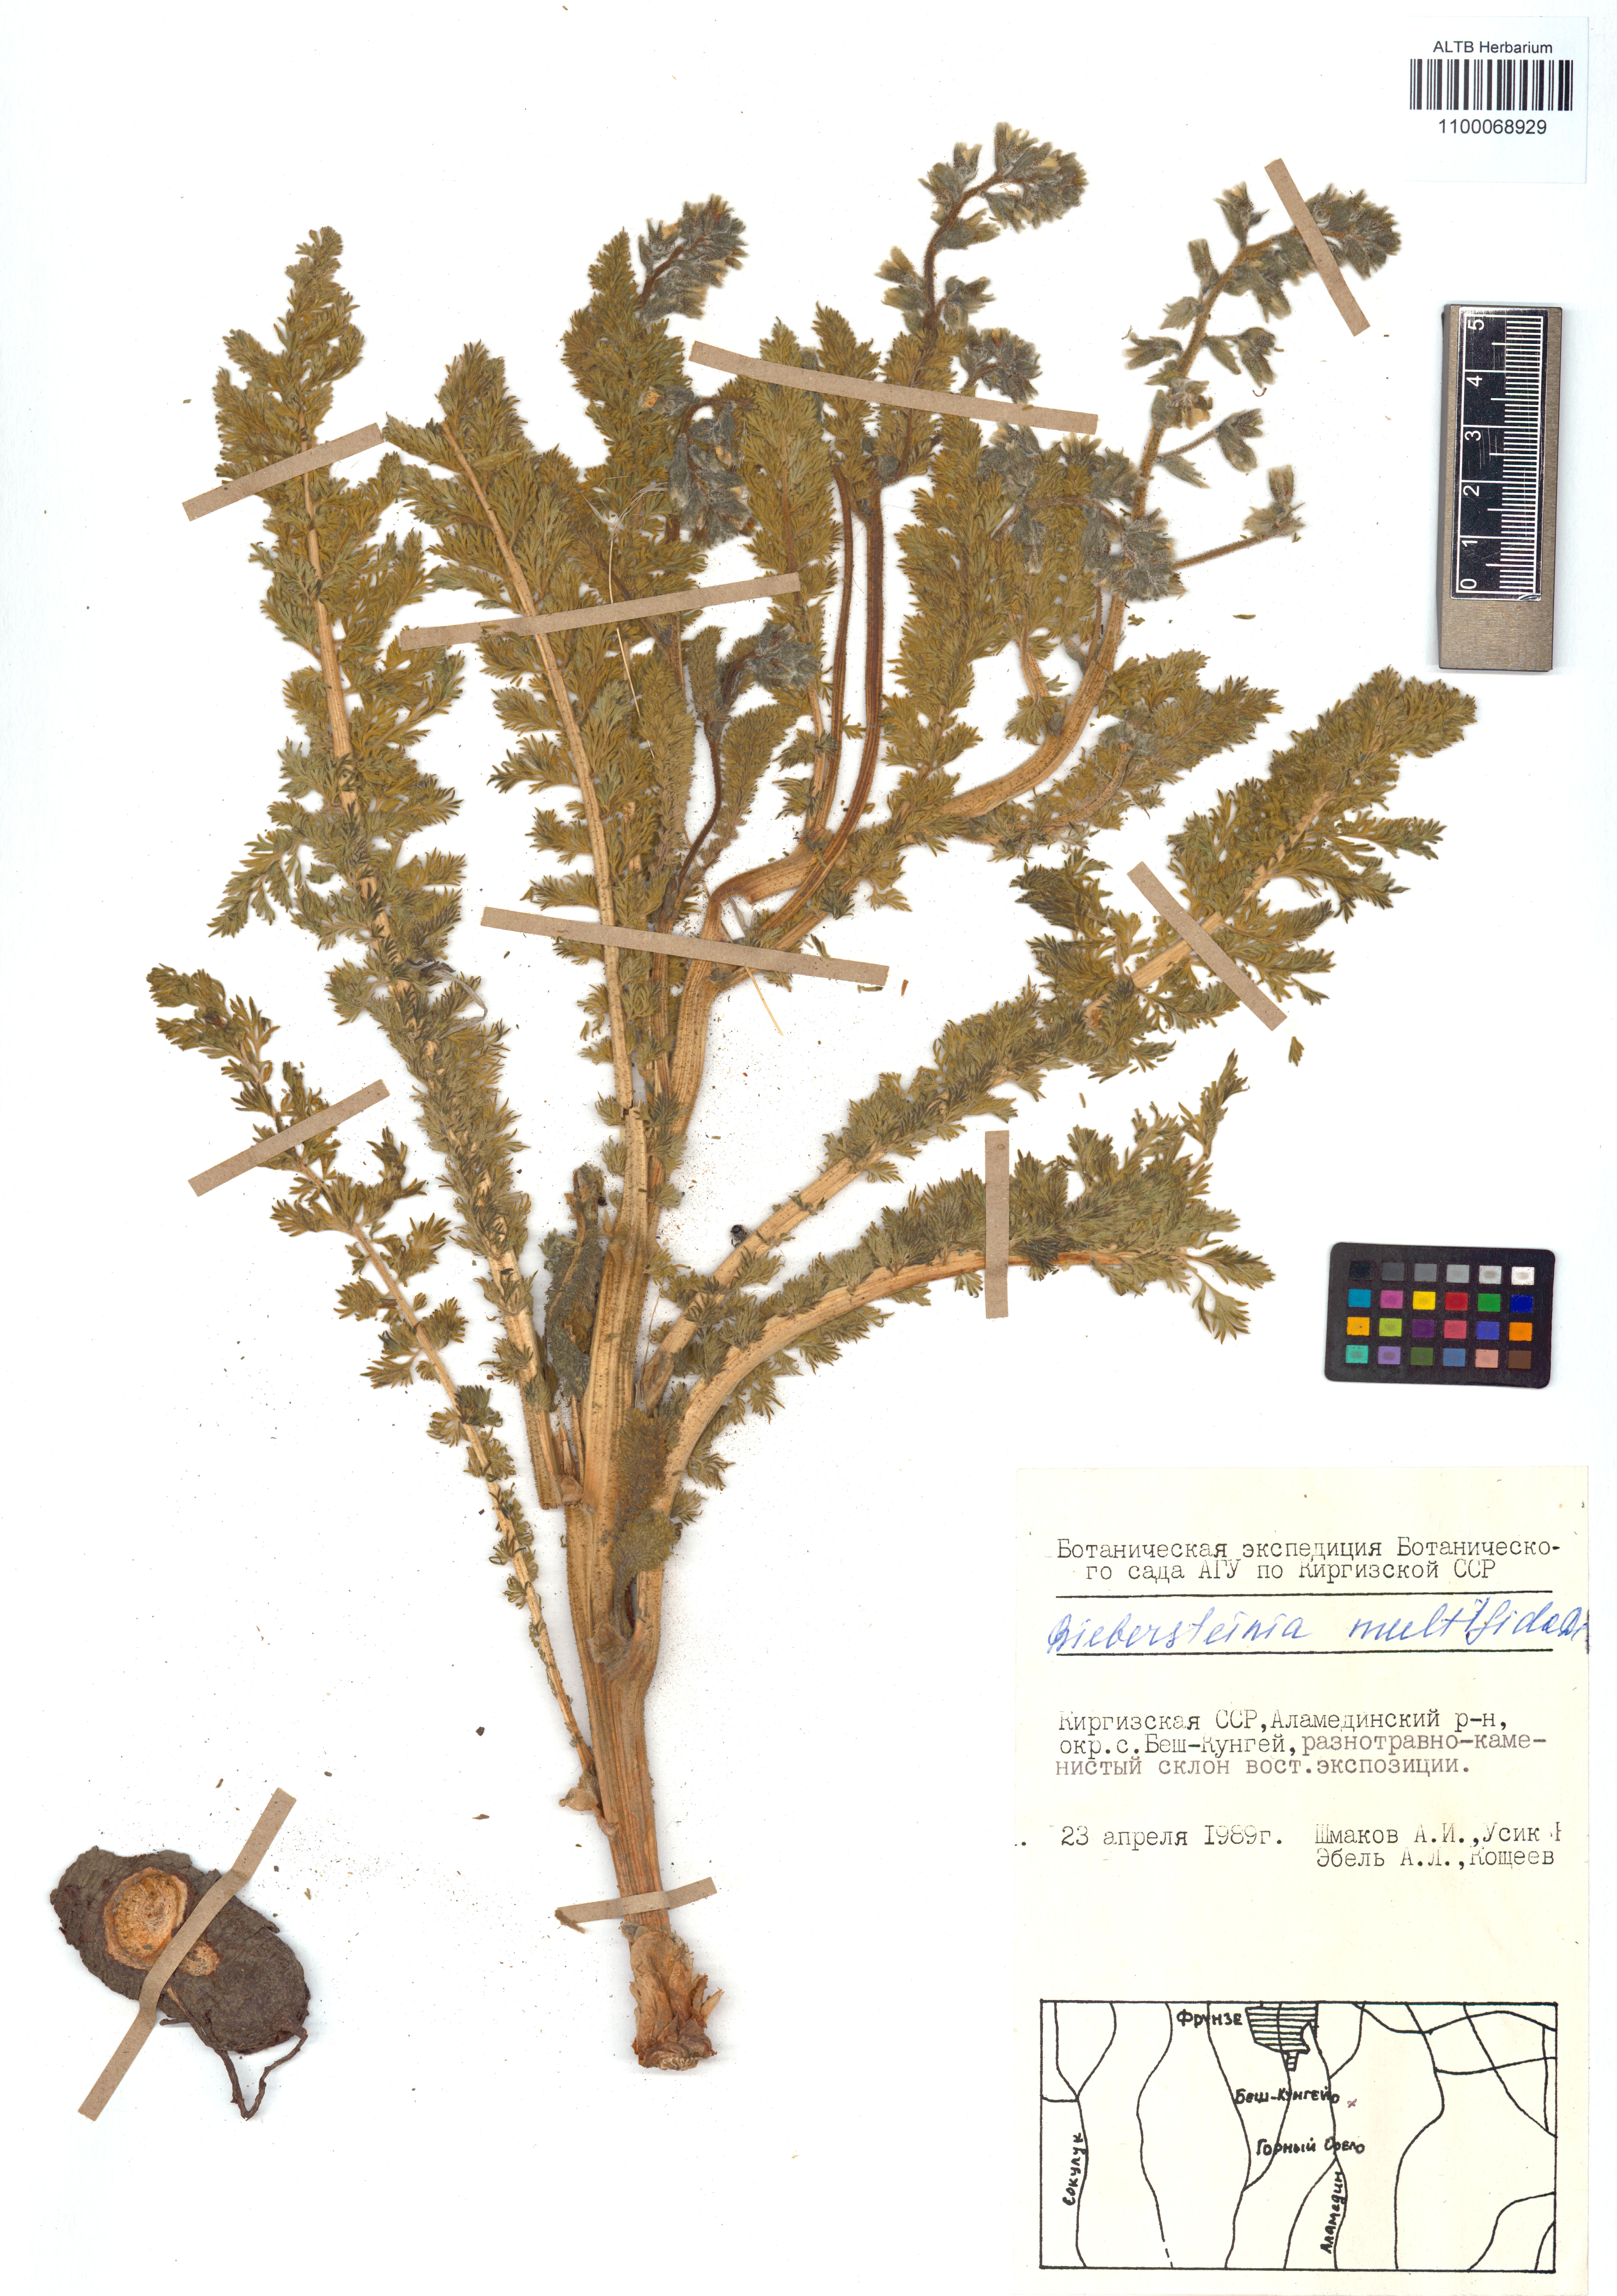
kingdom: Plantae
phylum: Tracheophyta
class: Magnoliopsida
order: Sapindales
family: Biebersteiniaceae
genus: Biebersteinia
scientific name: Biebersteinia multifida
